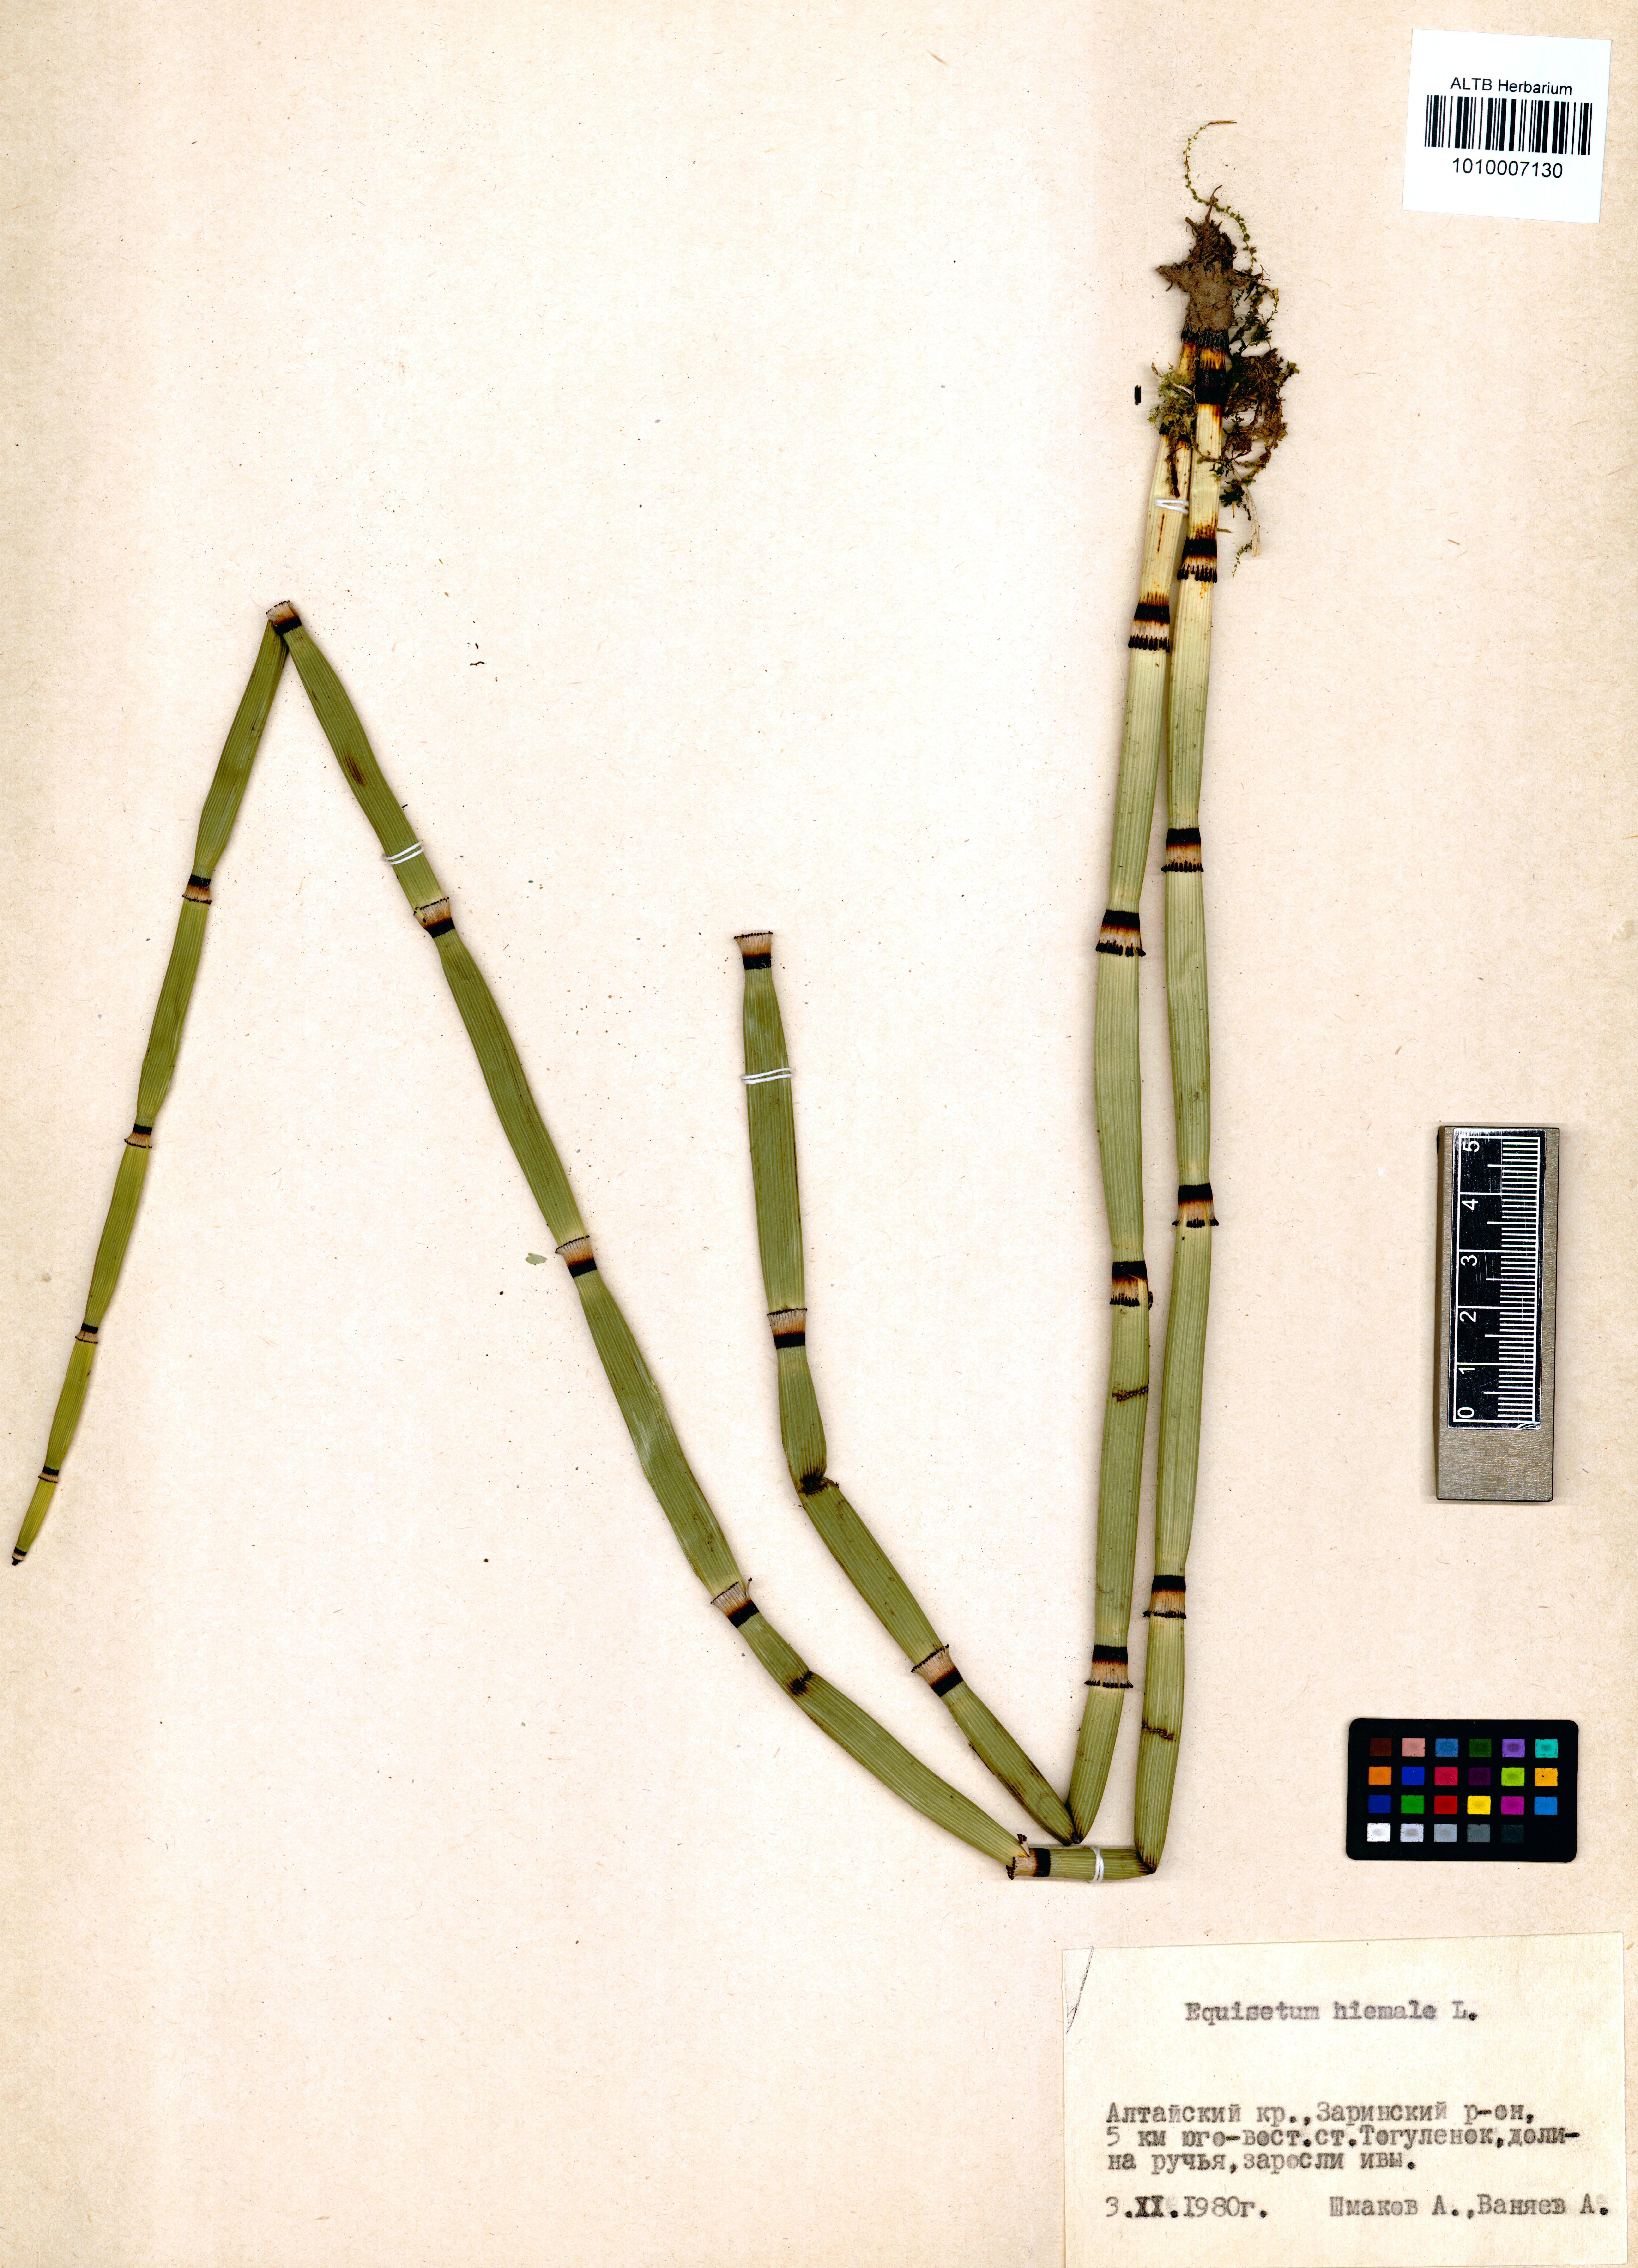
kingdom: Plantae
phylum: Tracheophyta
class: Polypodiopsida
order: Equisetales
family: Equisetaceae
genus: Equisetum
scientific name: Equisetum hyemale
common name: Rough horsetail
